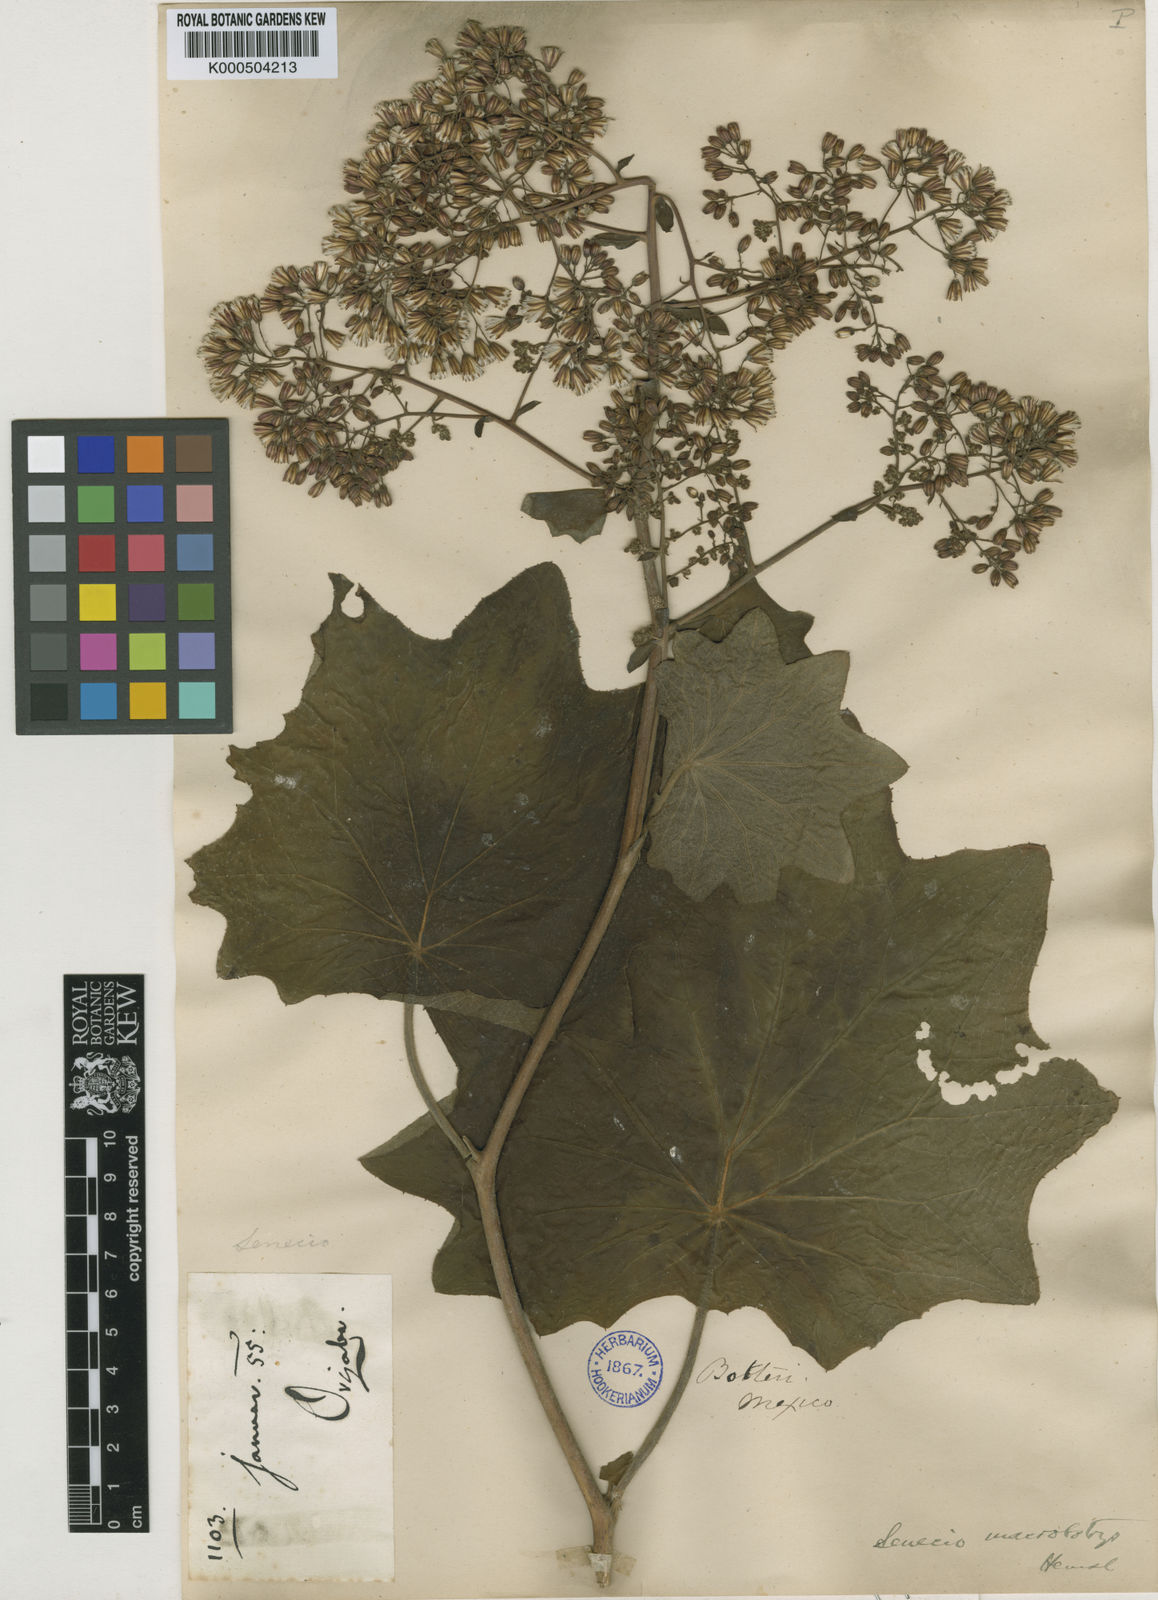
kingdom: Plantae
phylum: Tracheophyta
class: Magnoliopsida
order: Asterales
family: Asteraceae
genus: Roldana
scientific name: Roldana
